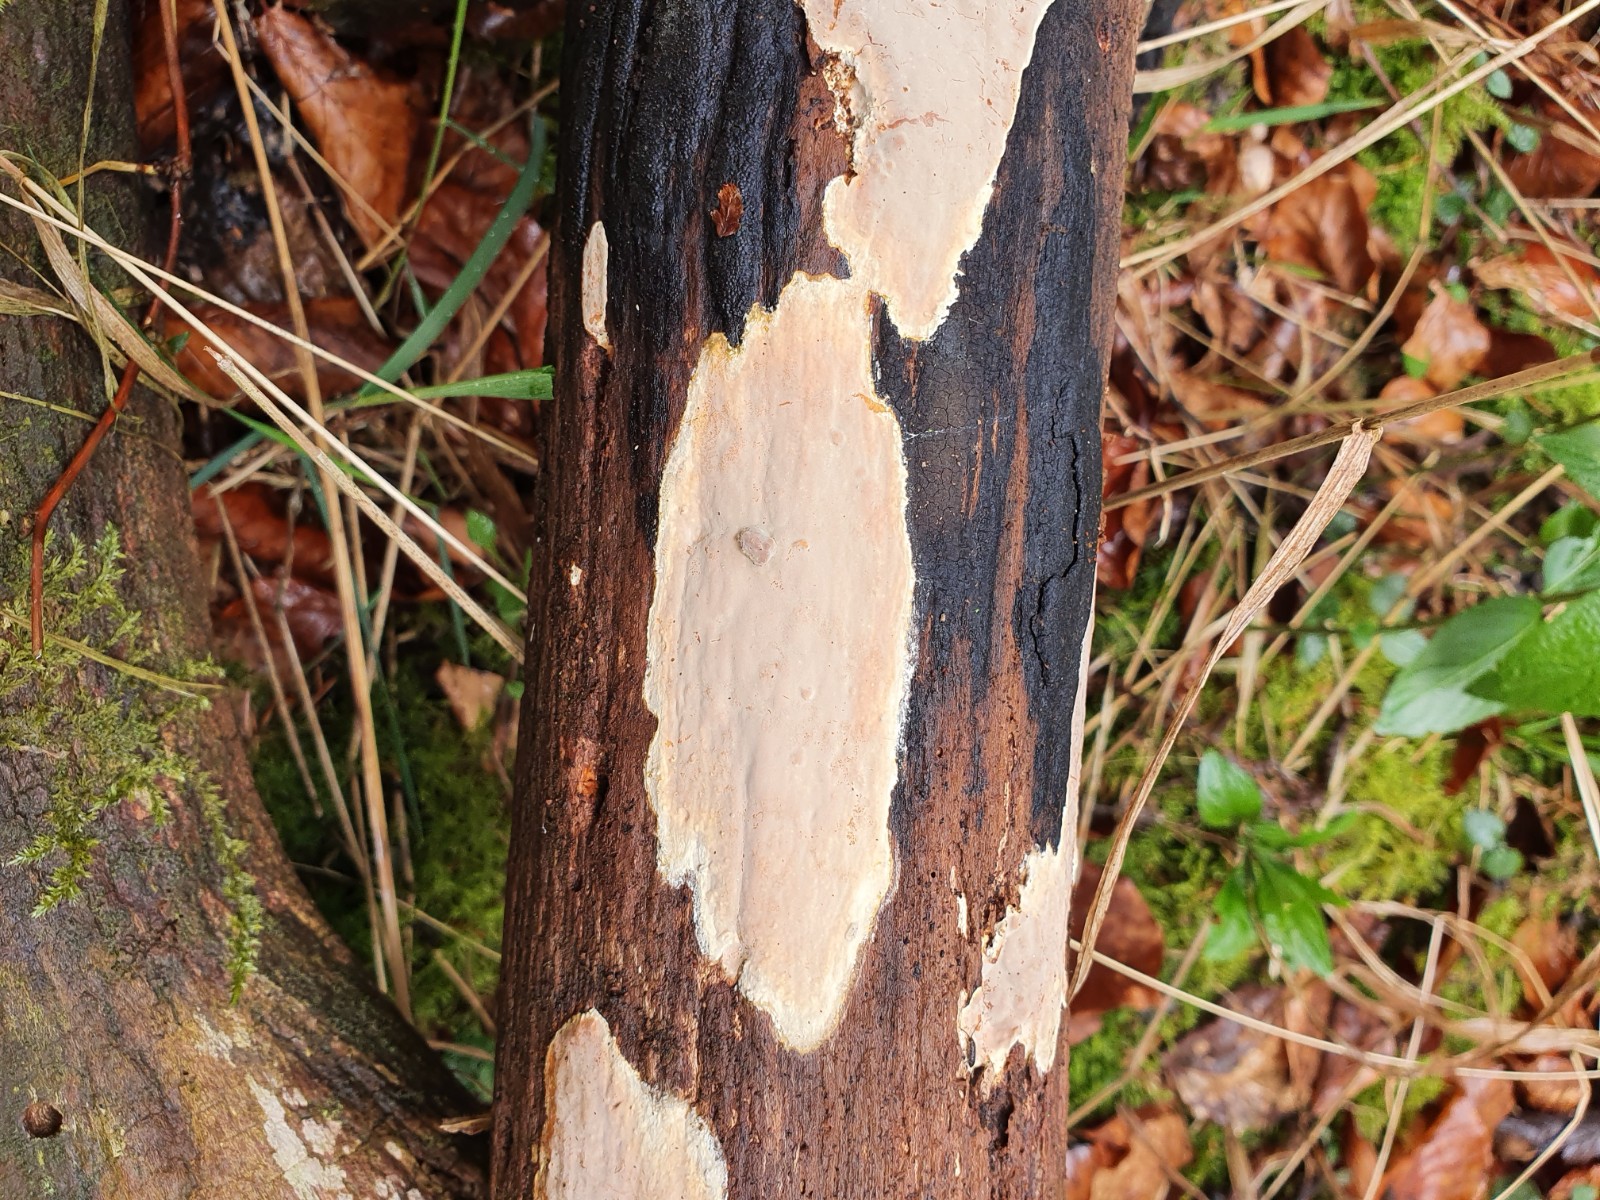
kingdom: Fungi
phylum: Basidiomycota
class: Agaricomycetes
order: Russulales
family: Peniophoraceae
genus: Scytinostroma
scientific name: Scytinostroma hemidichophyticum
